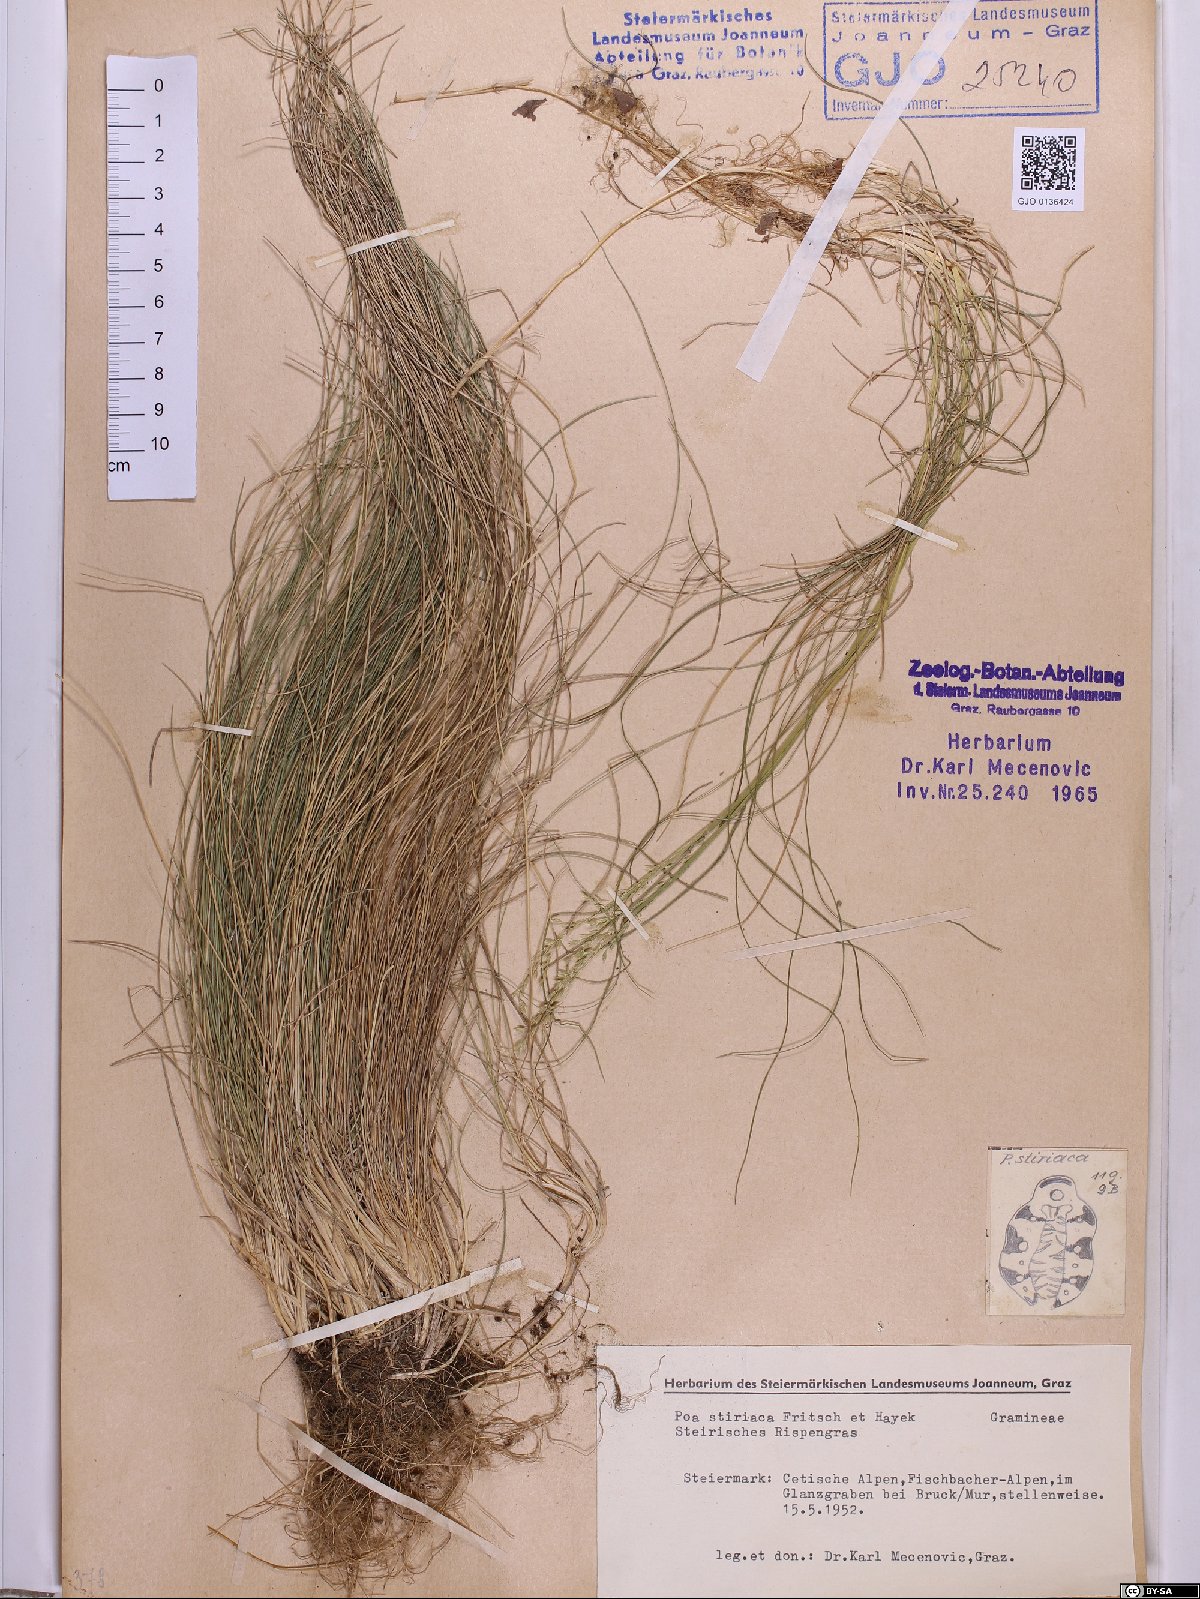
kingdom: Plantae
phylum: Tracheophyta
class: Liliopsida
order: Poales
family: Poaceae
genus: Poa
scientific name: Poa stiriaca
